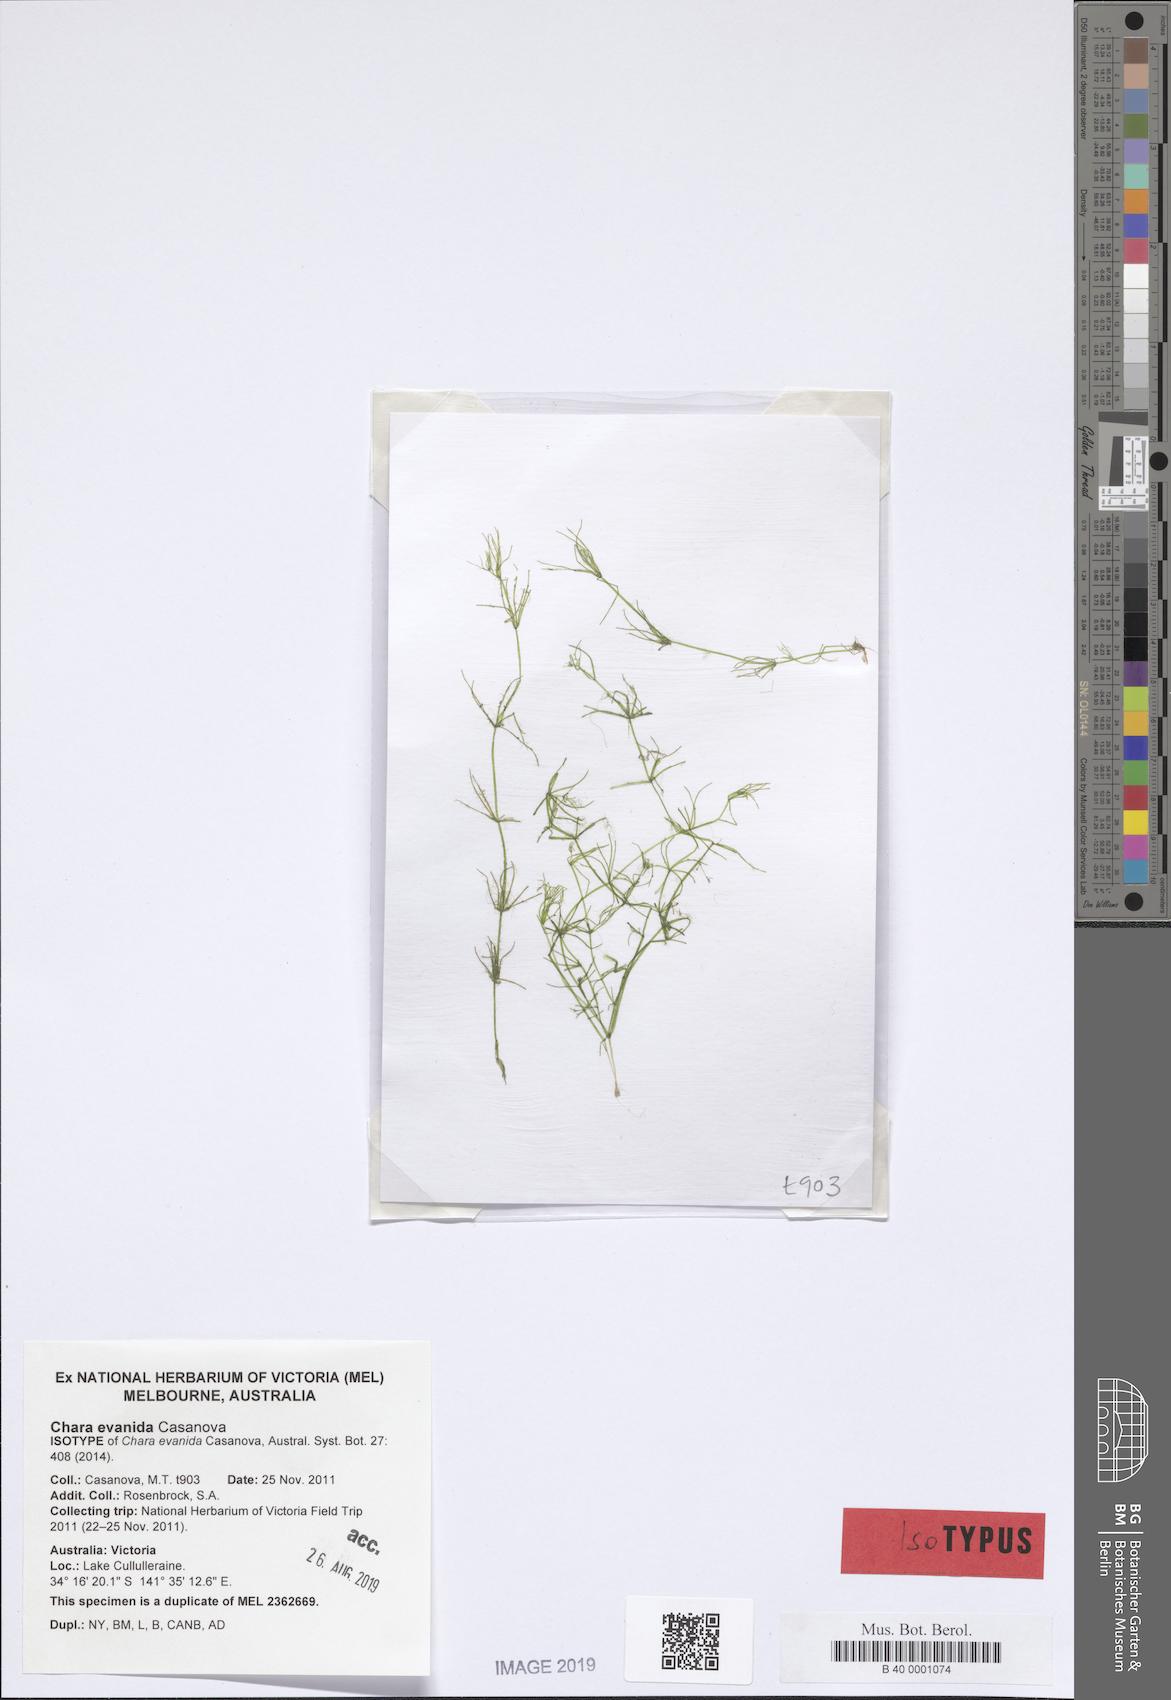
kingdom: Plantae
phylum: Charophyta
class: Charophyceae
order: Charales
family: Characeae
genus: Chara
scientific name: Chara
